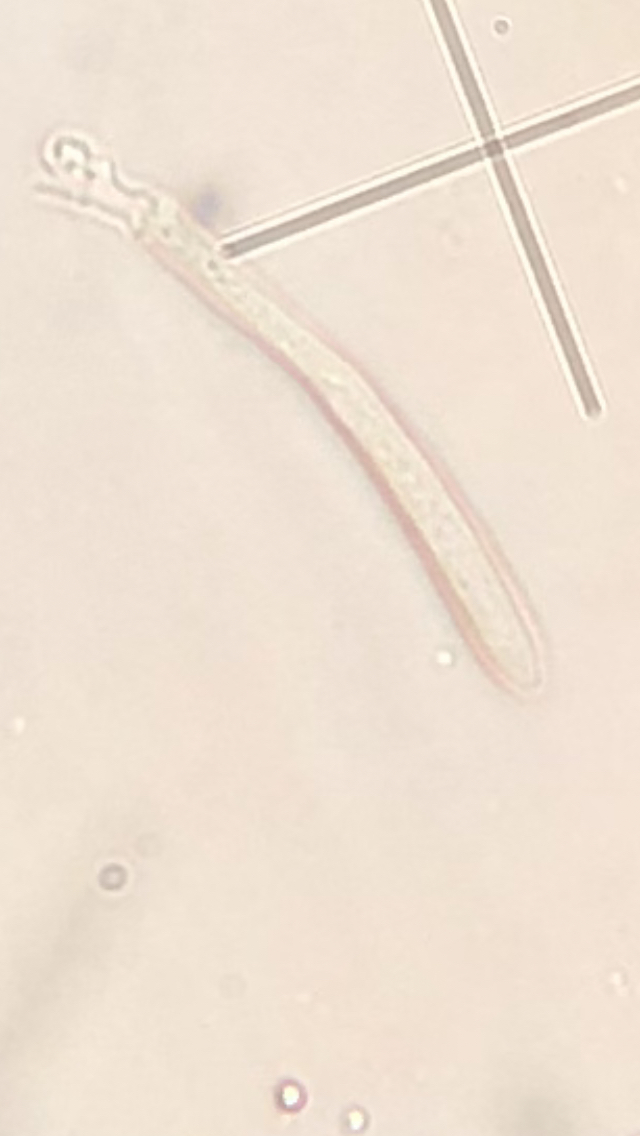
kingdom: Fungi
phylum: Ascomycota
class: Leotiomycetes
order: Helotiales
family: Lachnaceae
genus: Lachnum
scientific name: Lachnum virgineum
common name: jomfru-frynseskive
